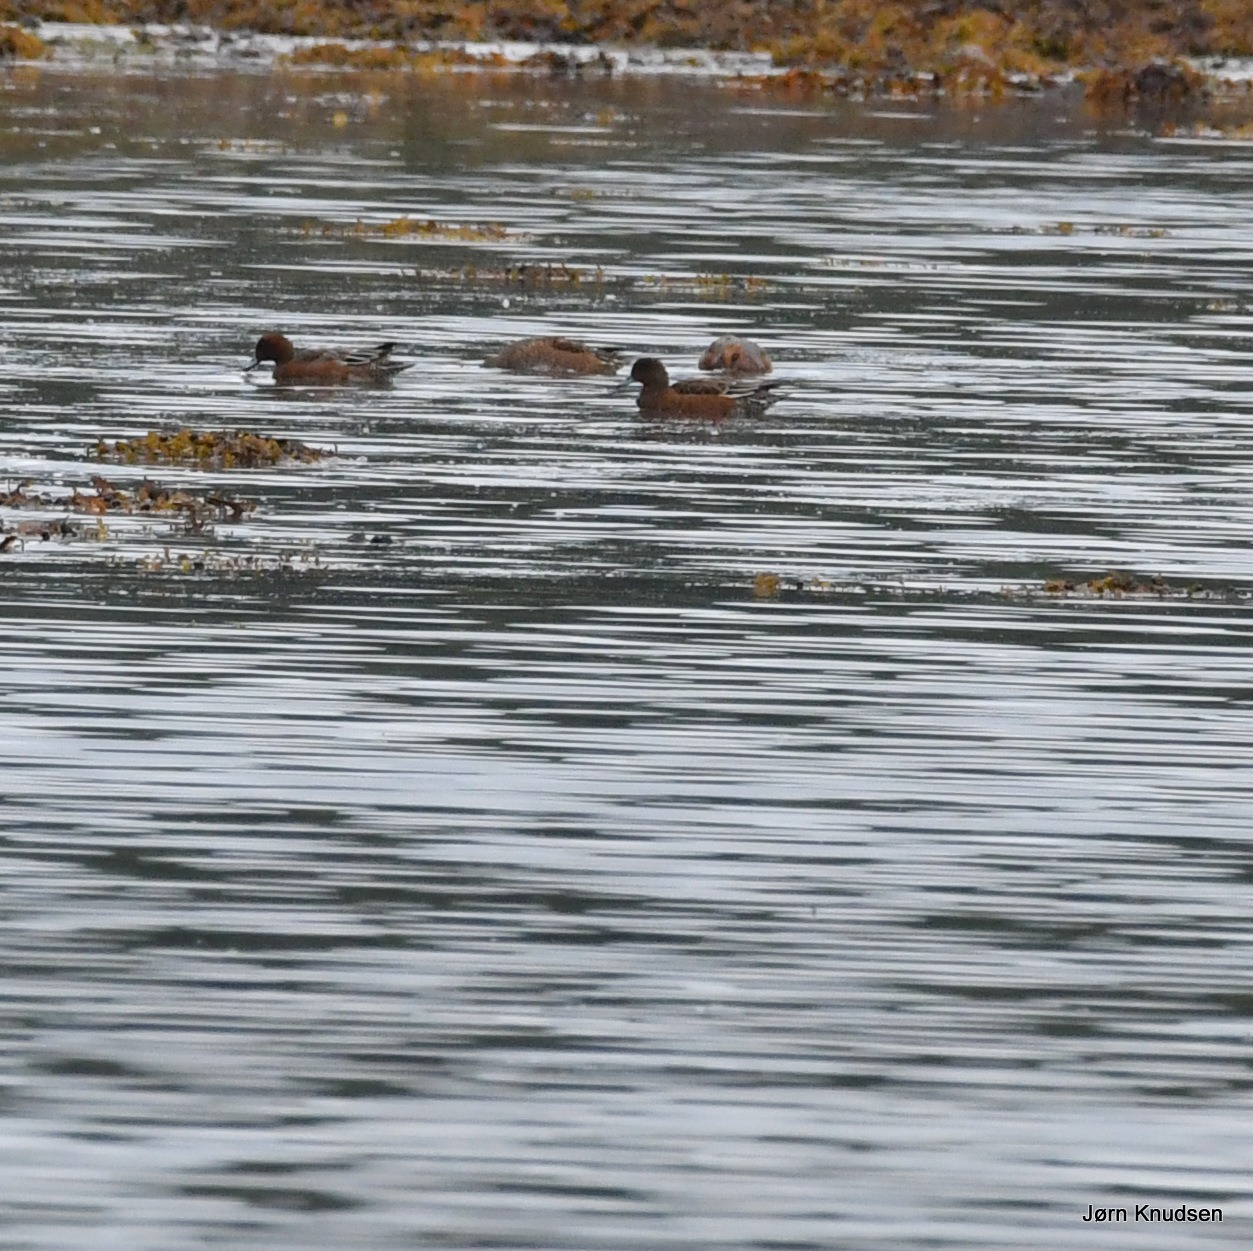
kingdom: Animalia
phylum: Chordata
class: Aves
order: Anseriformes
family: Anatidae
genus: Mareca
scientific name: Mareca penelope
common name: Pibeand
